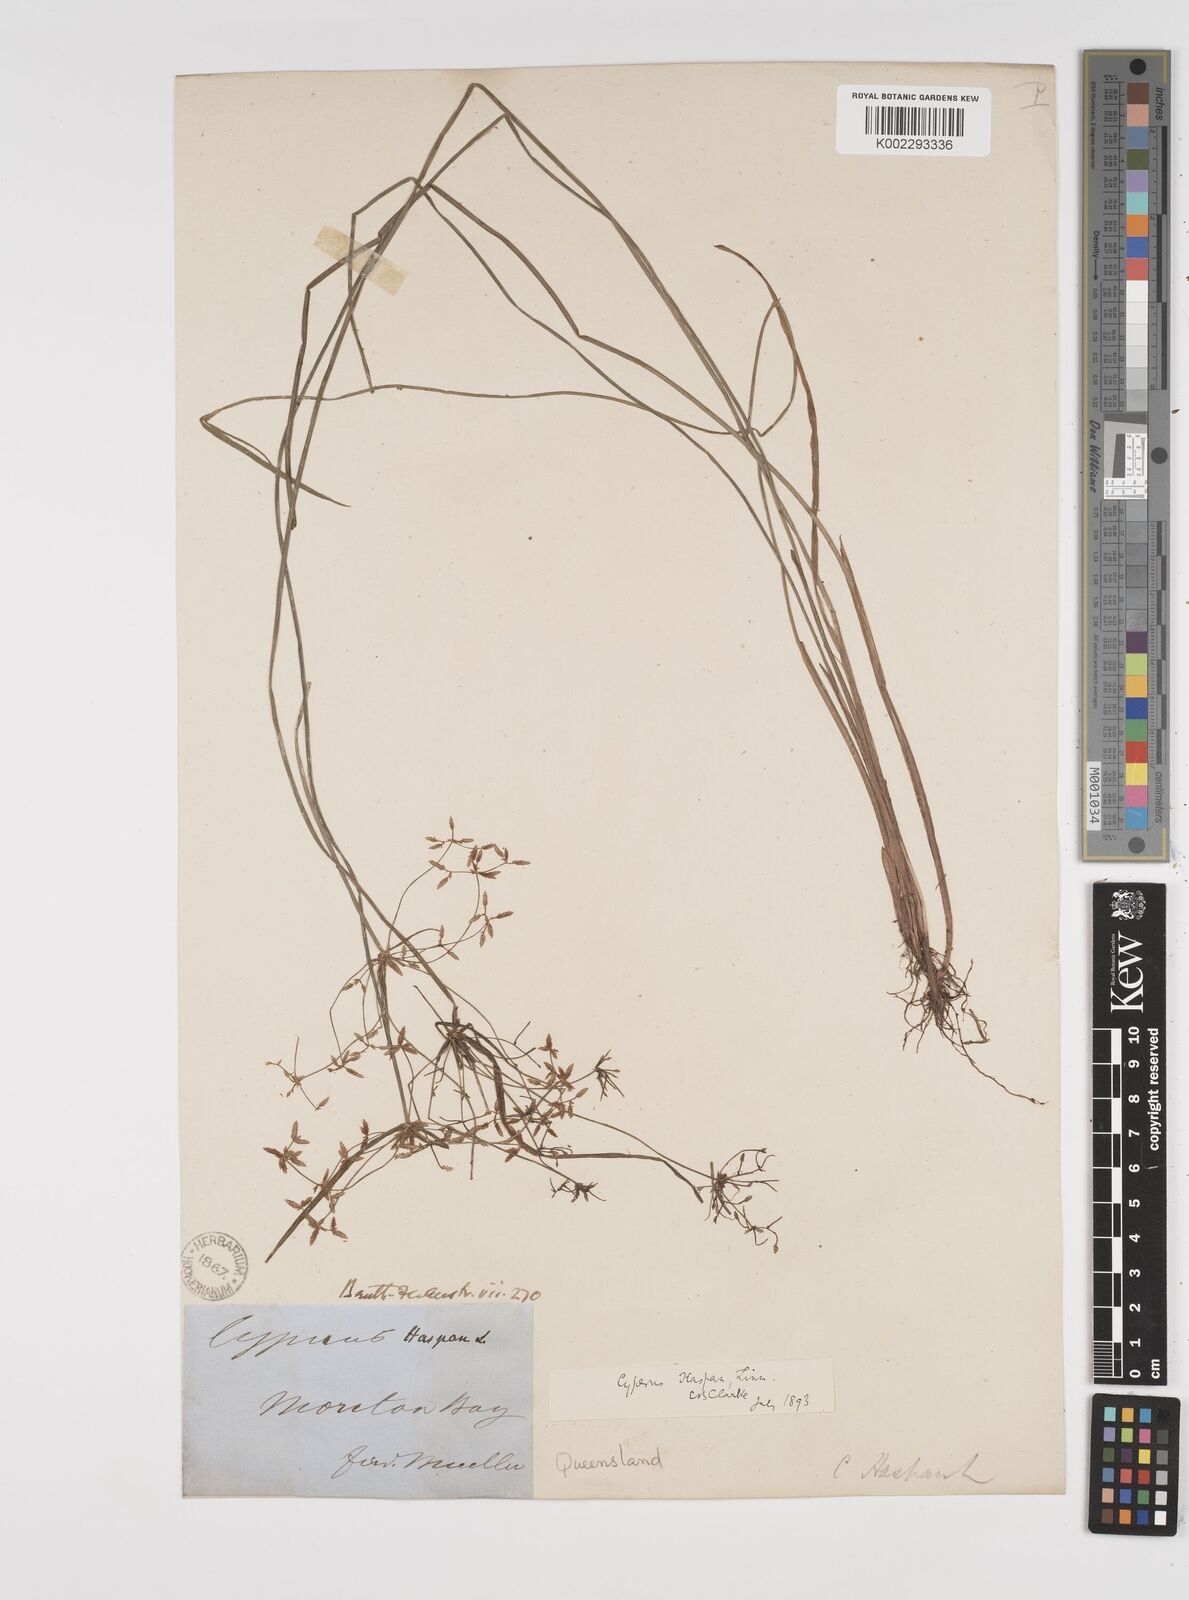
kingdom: Plantae
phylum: Tracheophyta
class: Liliopsida
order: Poales
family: Cyperaceae
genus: Cyperus
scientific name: Cyperus haspan
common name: Haspan flatsedge
